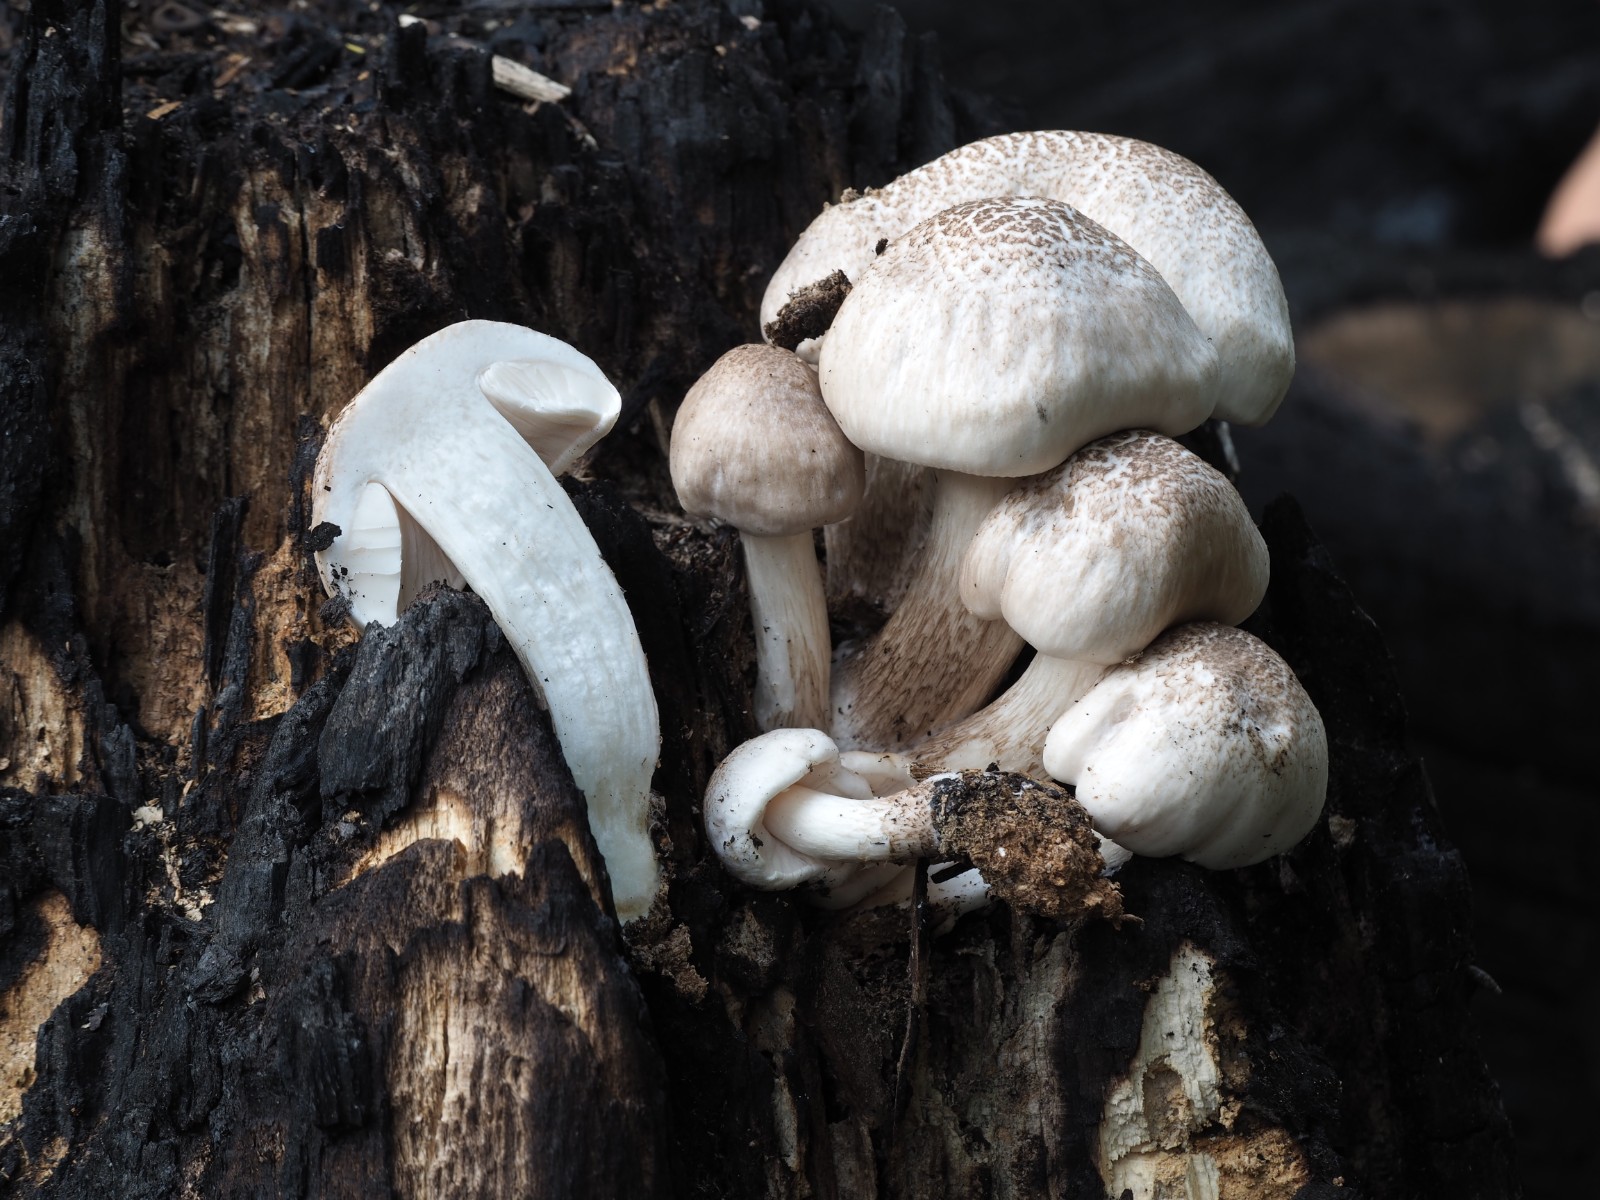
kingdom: Fungi
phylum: Basidiomycota
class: Agaricomycetes
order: Agaricales
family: Pluteaceae
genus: Pluteus
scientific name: Pluteus petasatus
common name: savsmulds-skærmhat
